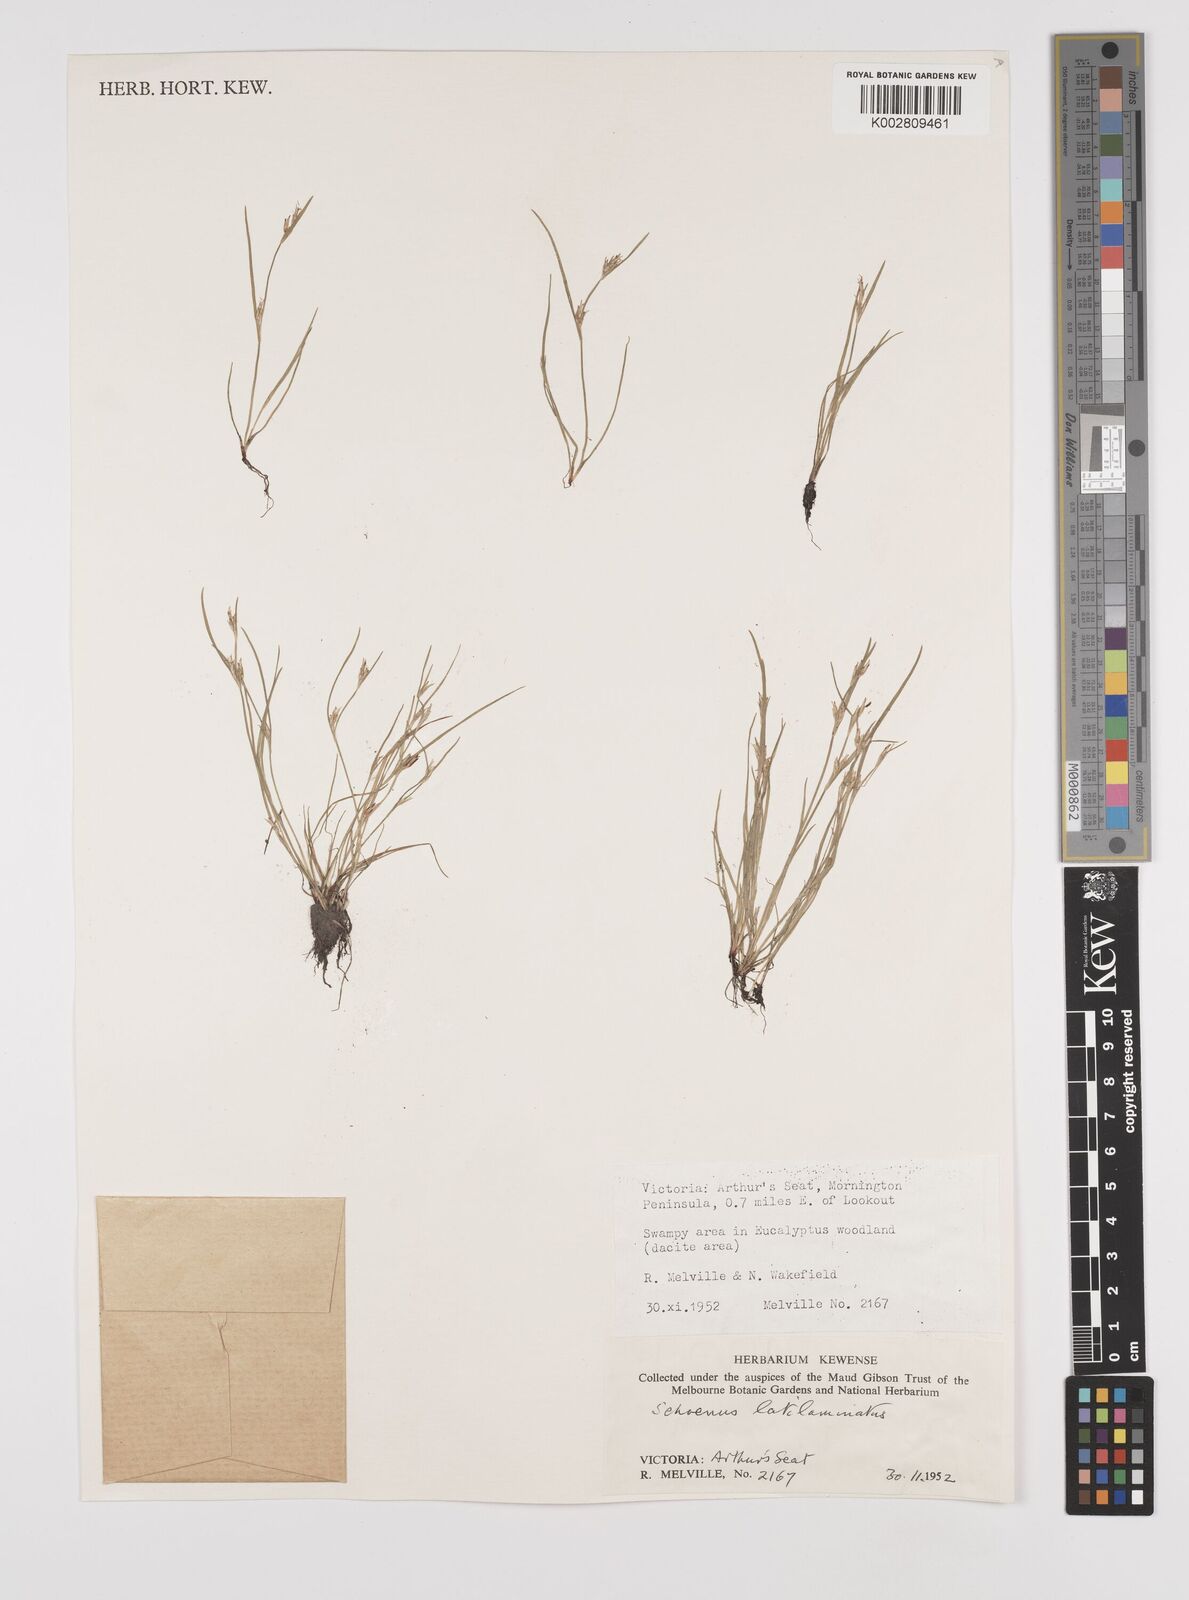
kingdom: Plantae
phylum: Tracheophyta
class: Liliopsida
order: Poales
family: Cyperaceae
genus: Schoenus
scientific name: Schoenus latelaminatus
